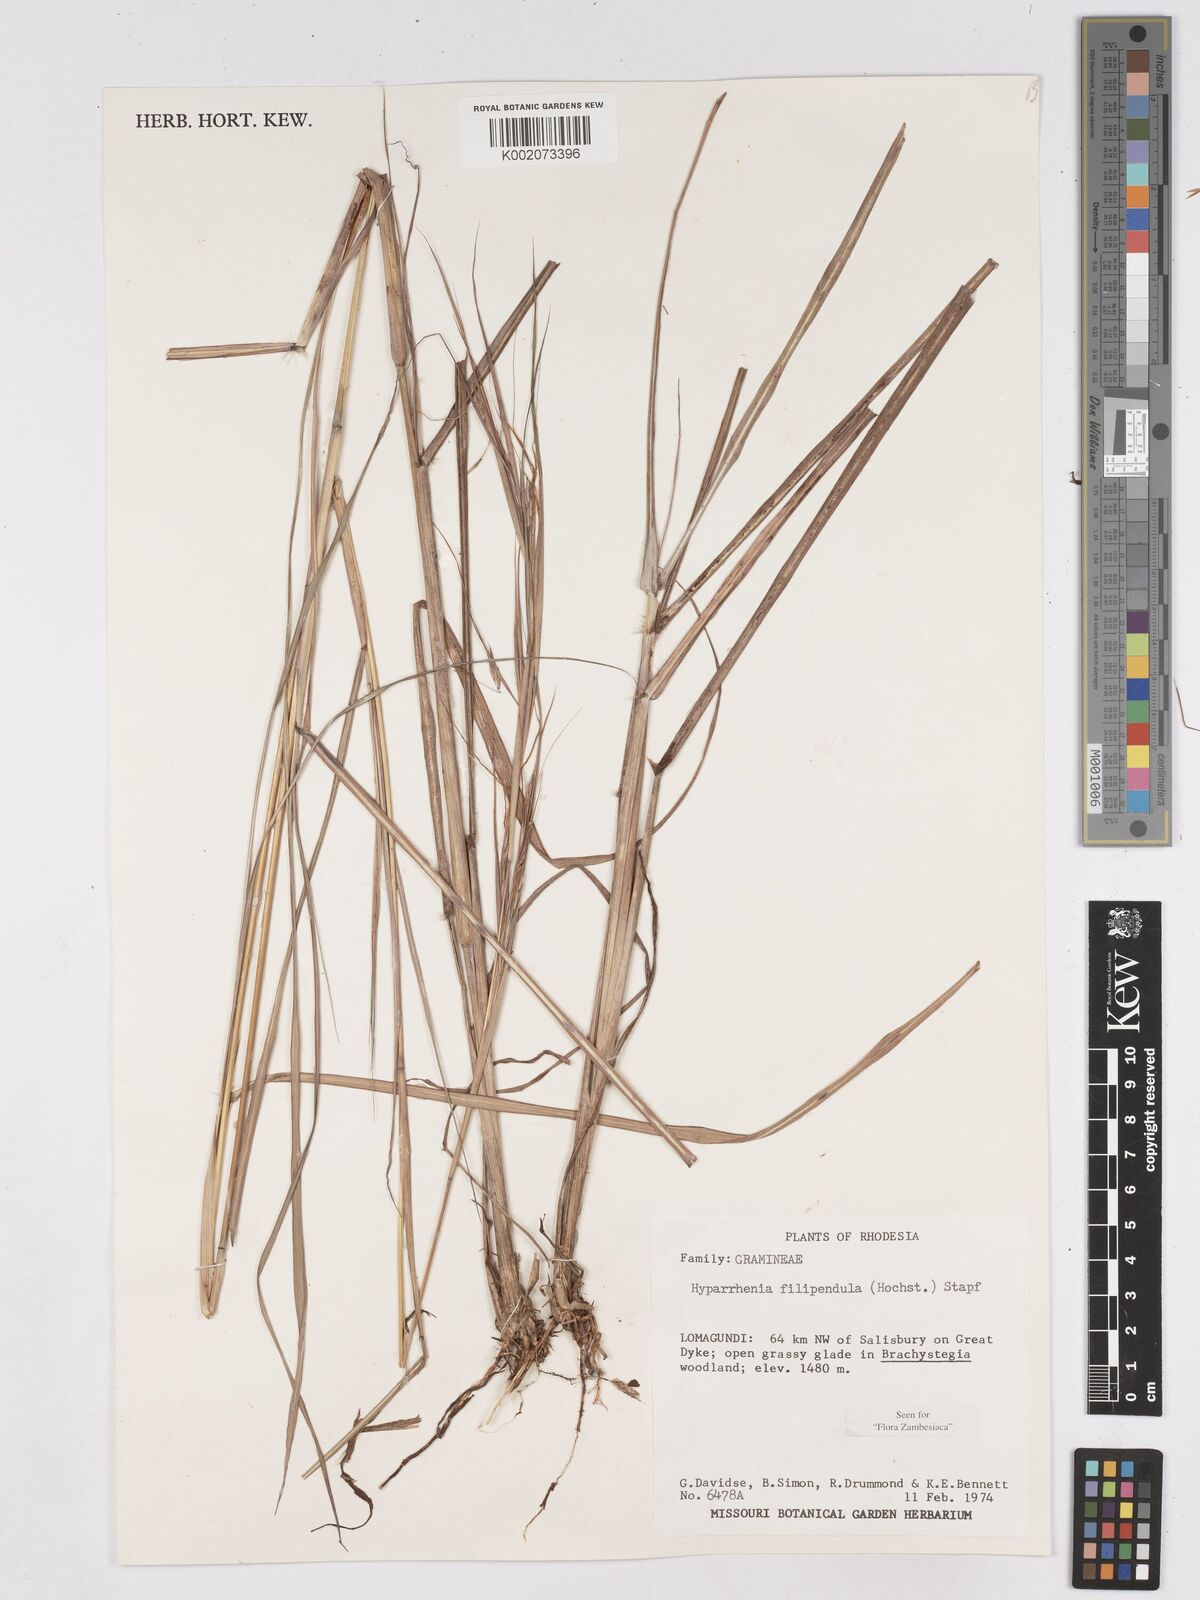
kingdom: Plantae
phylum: Tracheophyta
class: Liliopsida
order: Poales
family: Poaceae
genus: Hyparrhenia
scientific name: Hyparrhenia filipendula
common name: Tambookie grass
